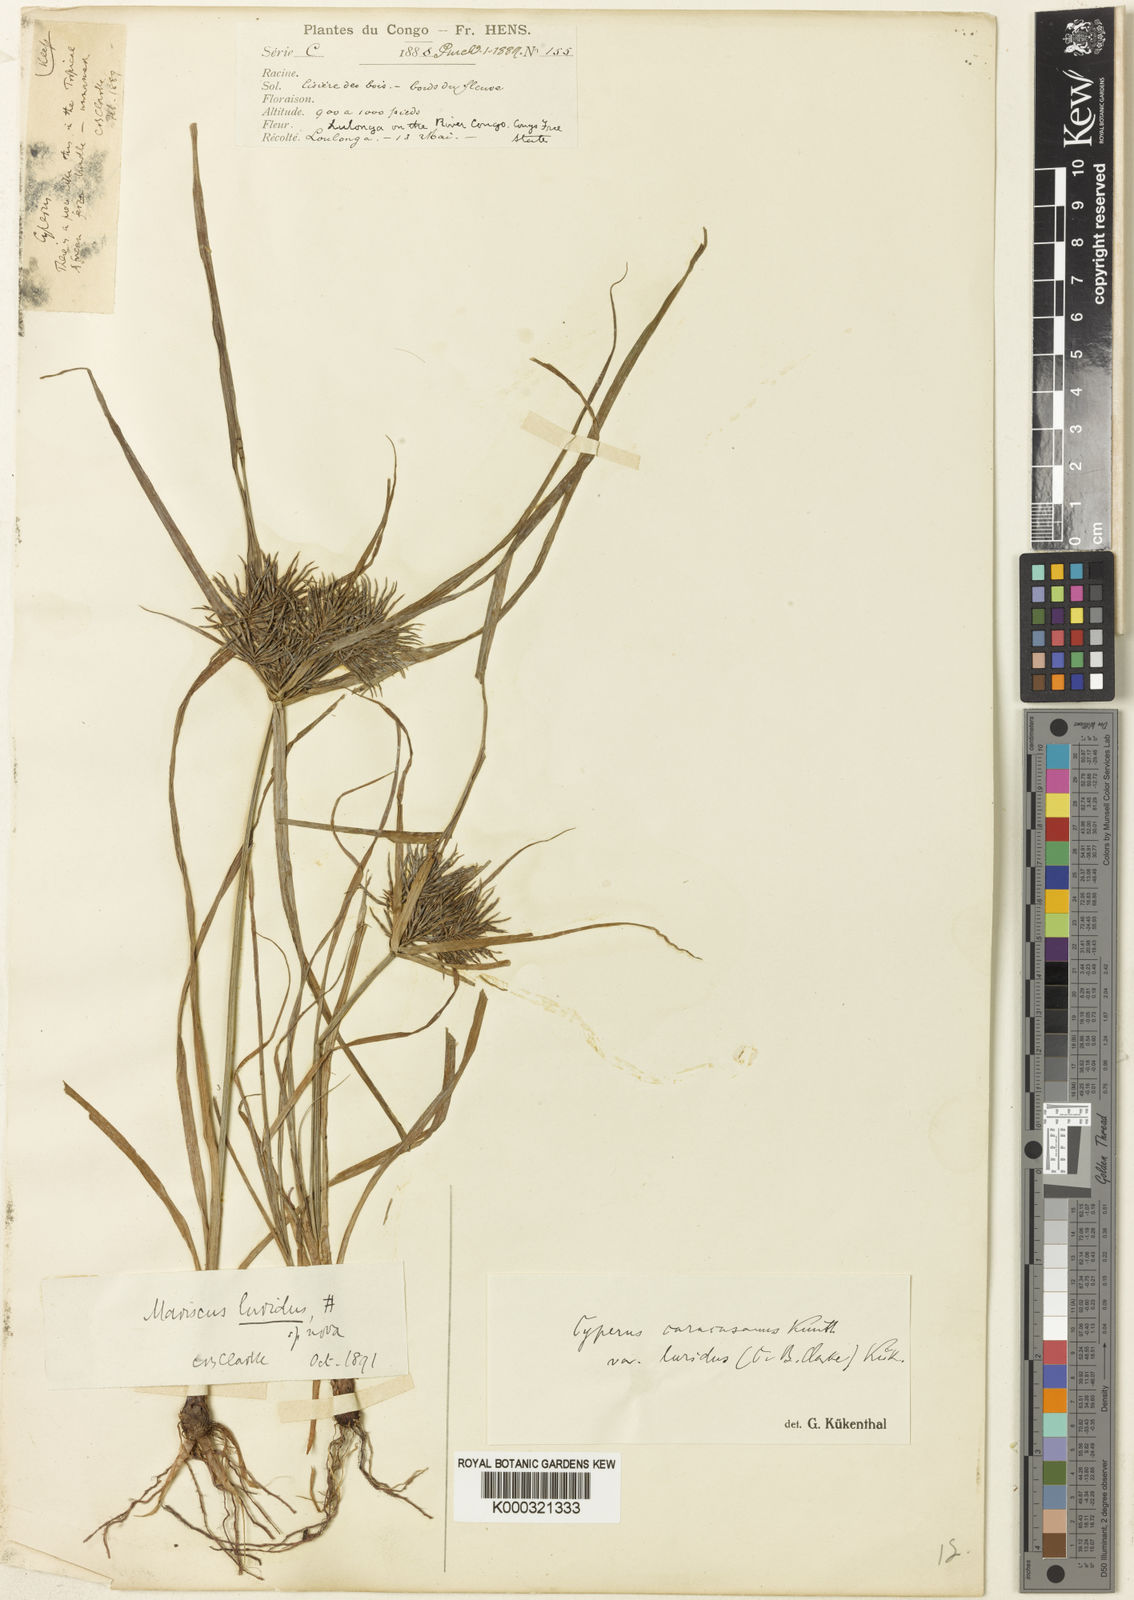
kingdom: Plantae
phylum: Tracheophyta
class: Liliopsida
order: Poales
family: Cyperaceae
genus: Cyperus
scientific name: Cyperus tenuis
